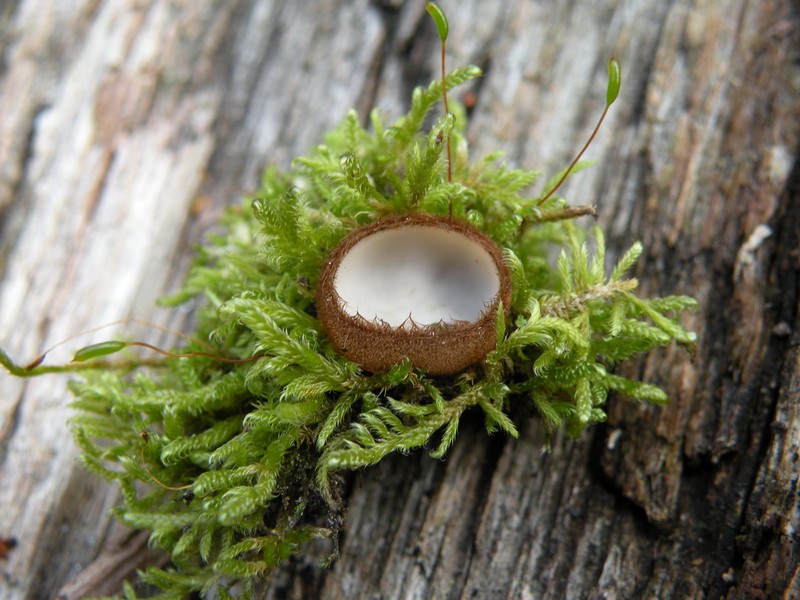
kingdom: Fungi
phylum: Ascomycota
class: Pezizomycetes
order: Pezizales
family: Pyronemataceae
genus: Humaria
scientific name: Humaria hemisphaerica
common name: halvkugleformet børstebæger
